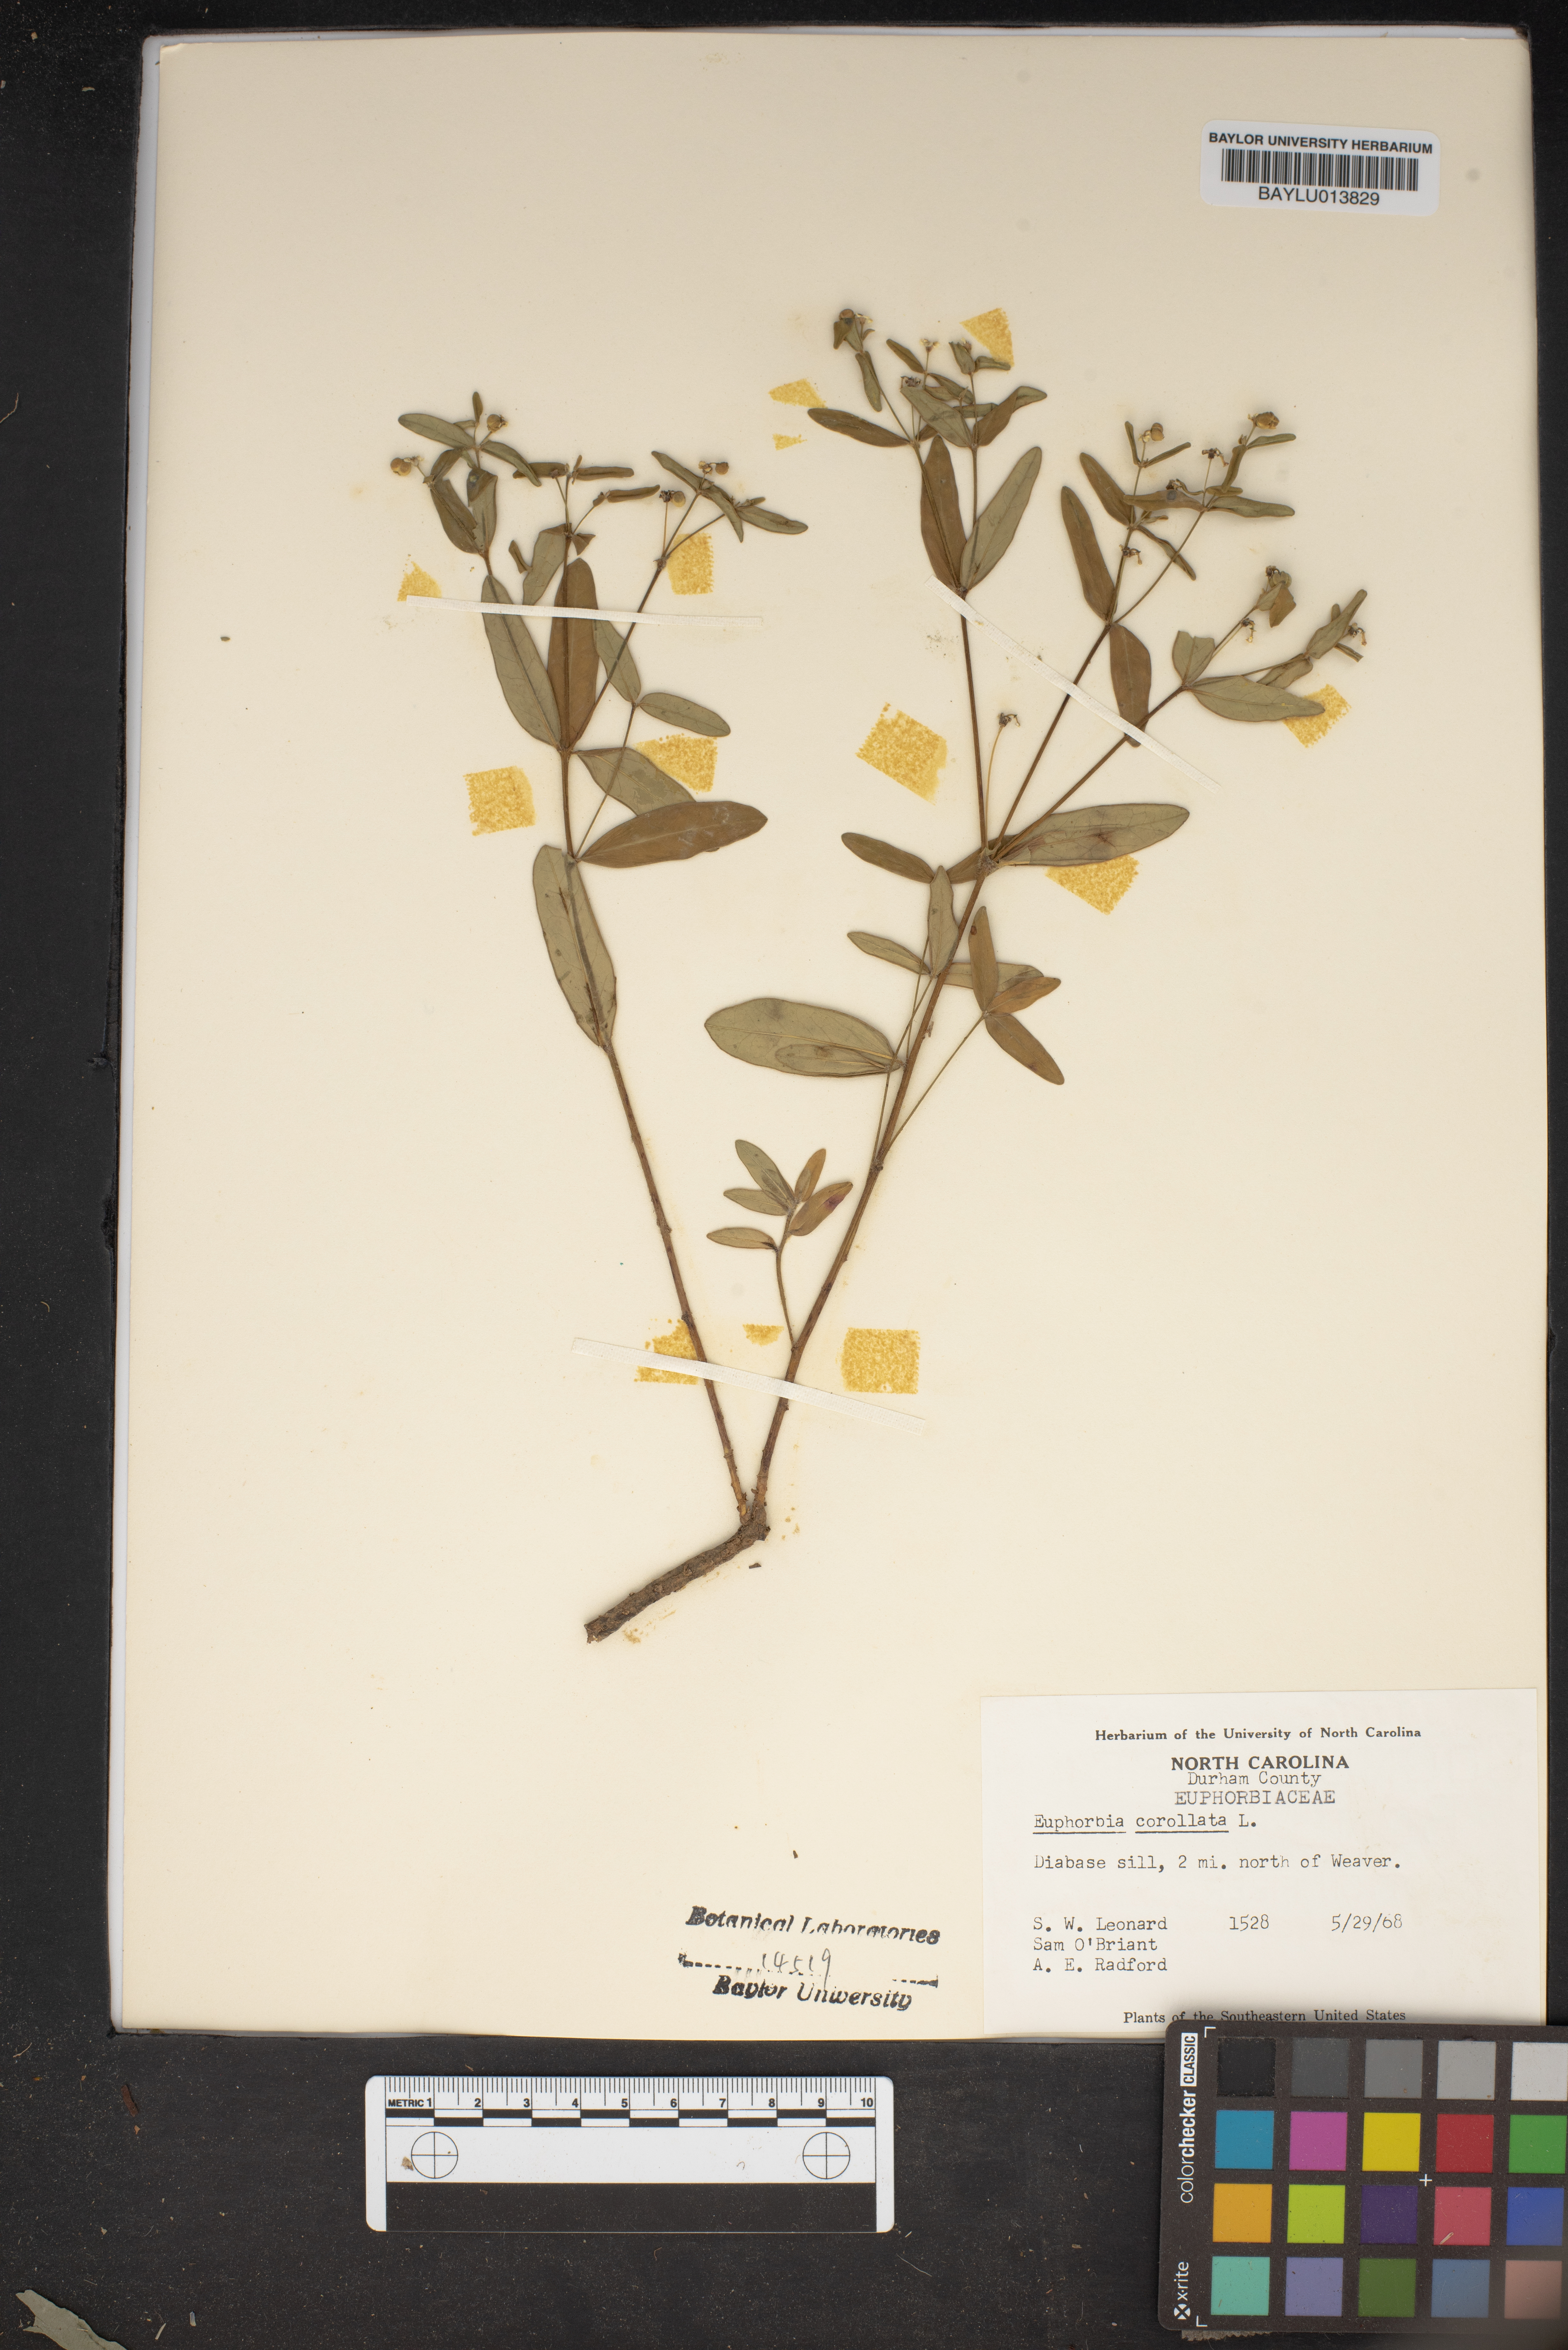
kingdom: Plantae
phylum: Tracheophyta
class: Magnoliopsida
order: Malpighiales
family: Euphorbiaceae
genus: Euphorbia
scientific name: Euphorbia corollata
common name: Flowering spurge
